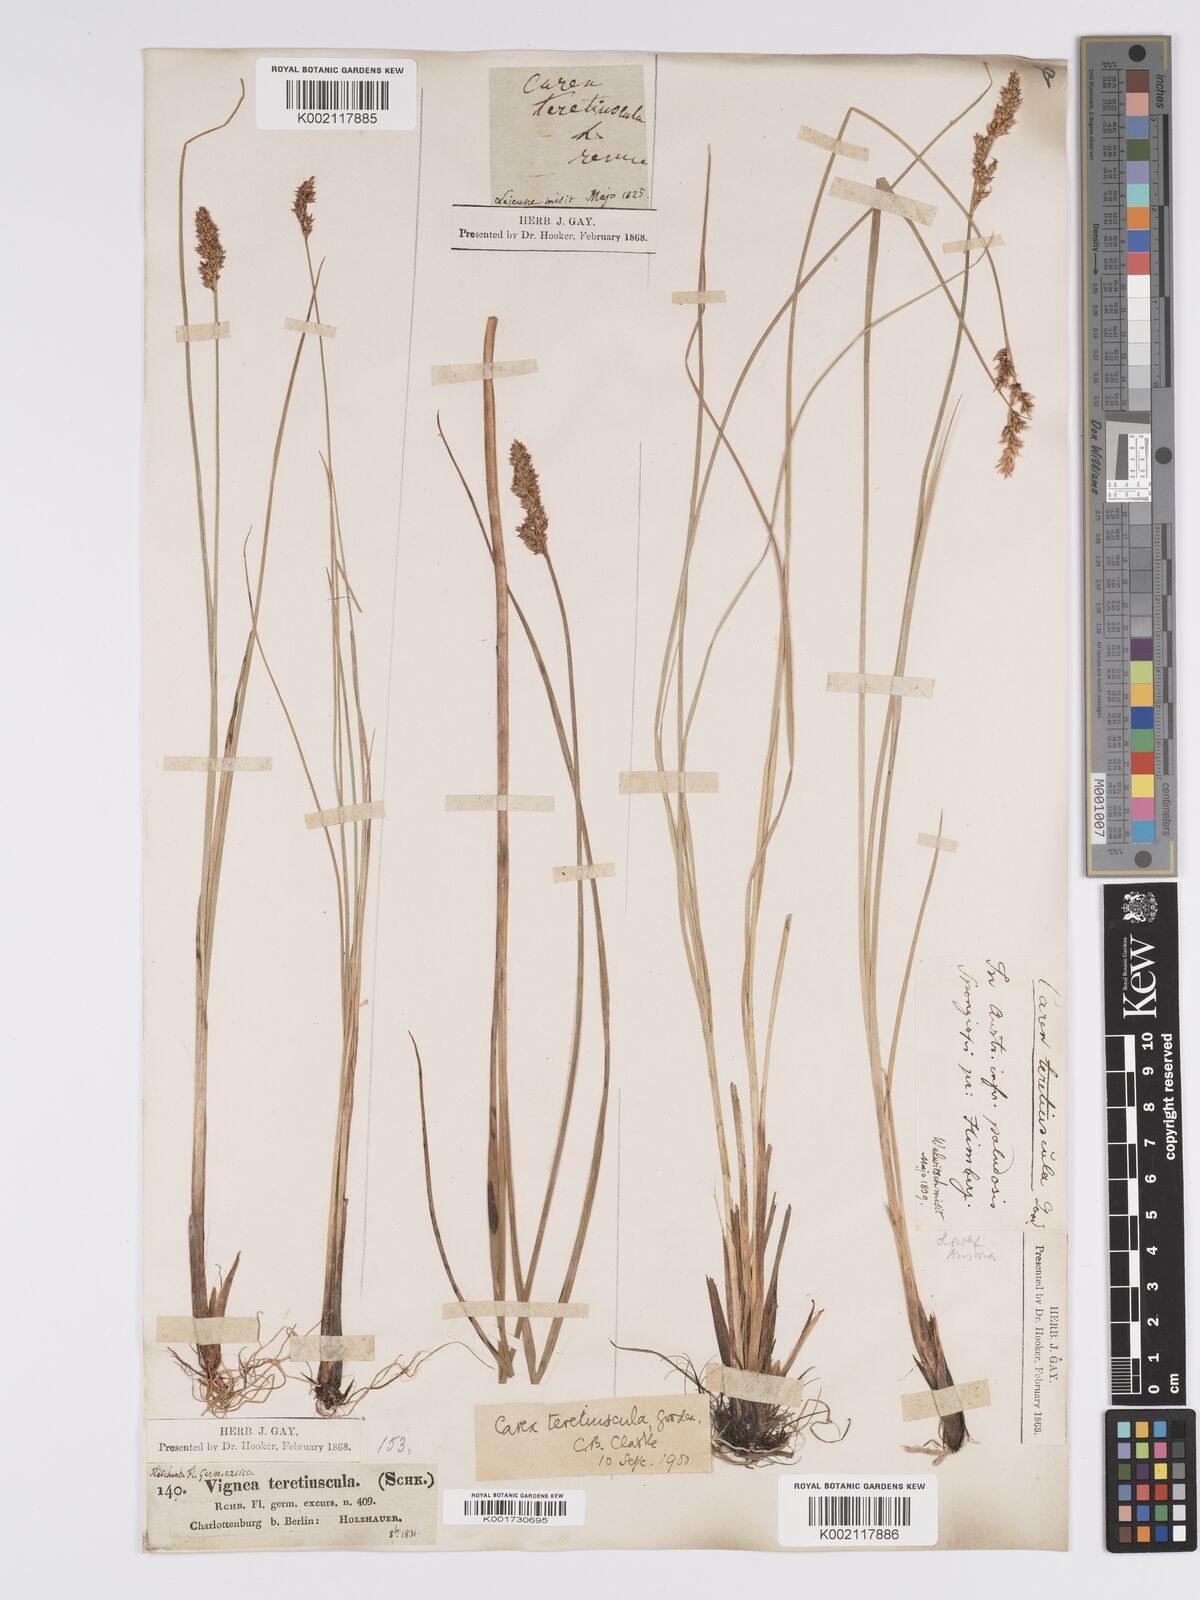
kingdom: Plantae
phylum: Tracheophyta
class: Liliopsida
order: Poales
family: Cyperaceae
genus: Carex
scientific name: Carex diandra
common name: Lesser tussock-sedge
